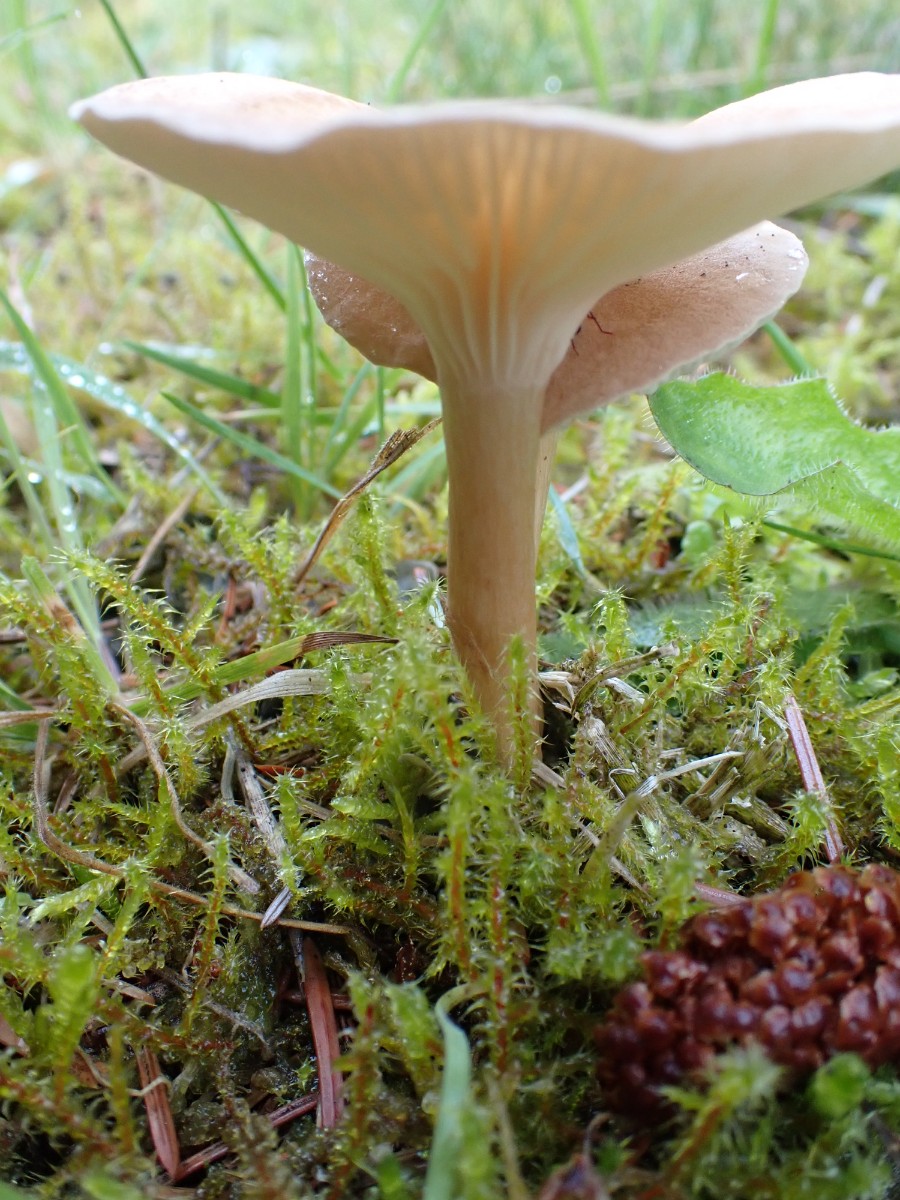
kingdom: Fungi
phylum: Basidiomycota
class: Agaricomycetes
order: Agaricales
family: Tricholomataceae
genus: Infundibulicybe
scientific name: Infundibulicybe squamulosa
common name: småskællet tragthat
